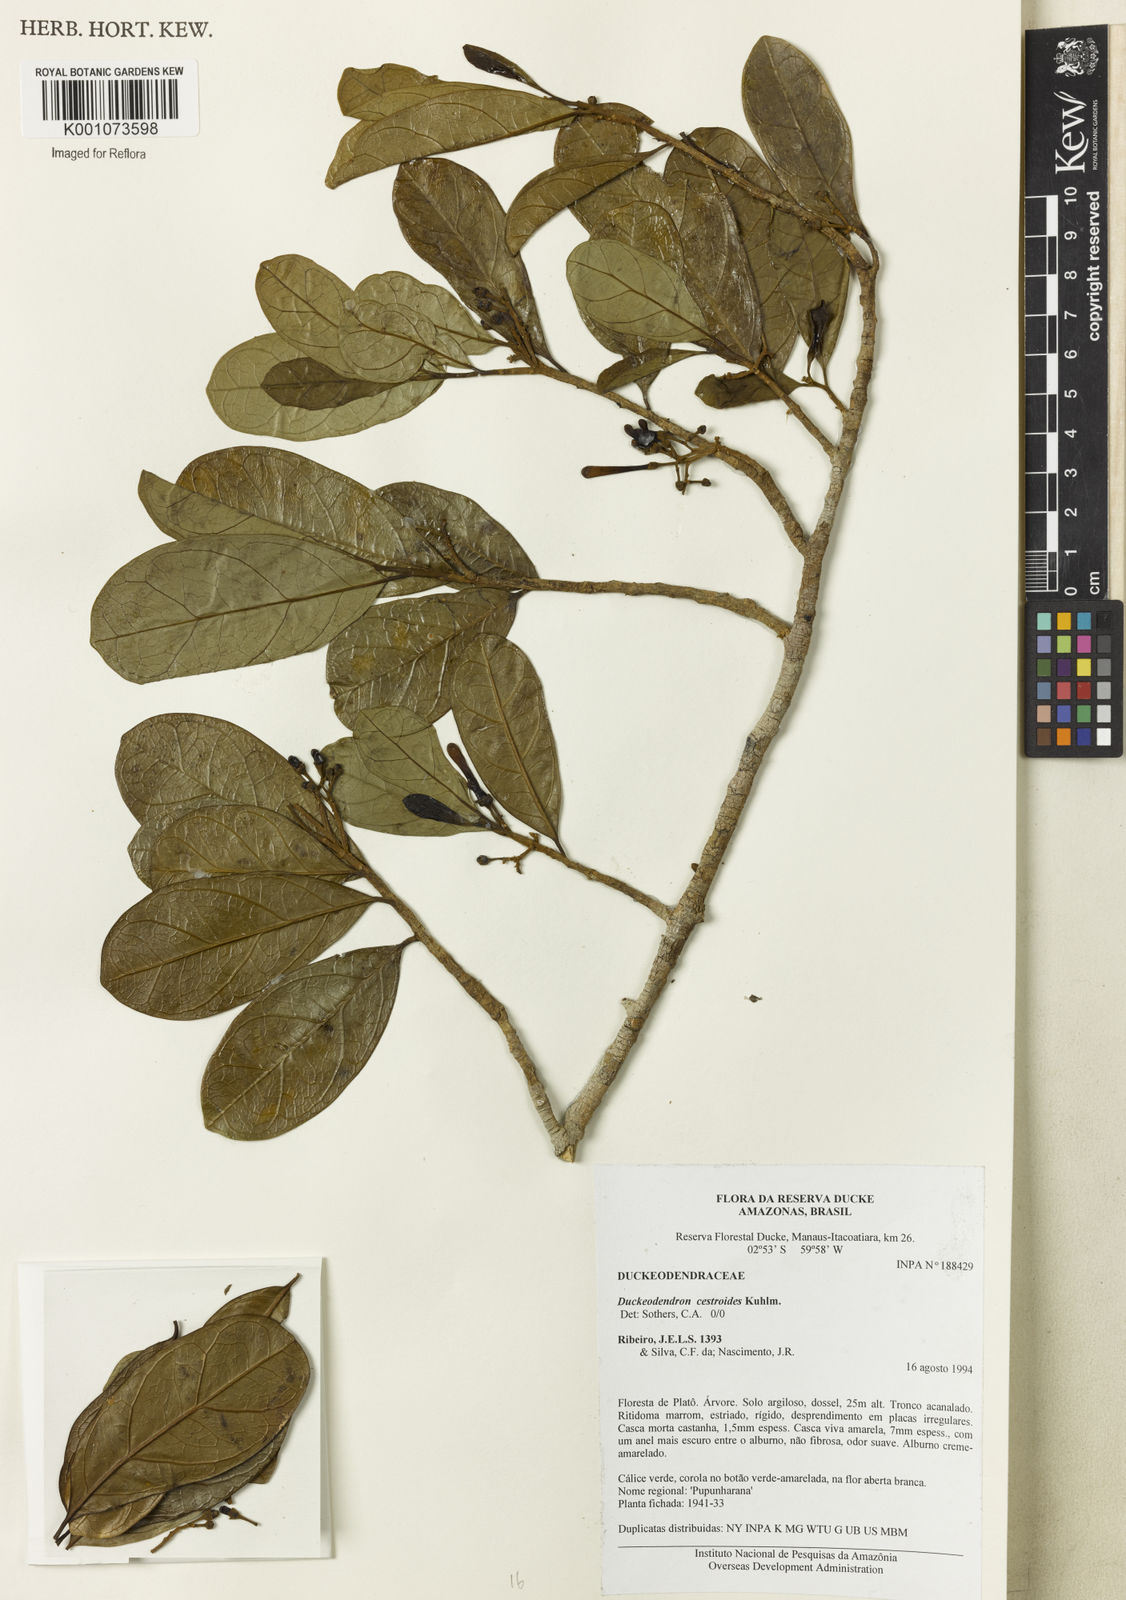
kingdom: Plantae
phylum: Tracheophyta
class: Magnoliopsida
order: Solanales
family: Solanaceae
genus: Duckeodendron
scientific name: Duckeodendron cestroides
